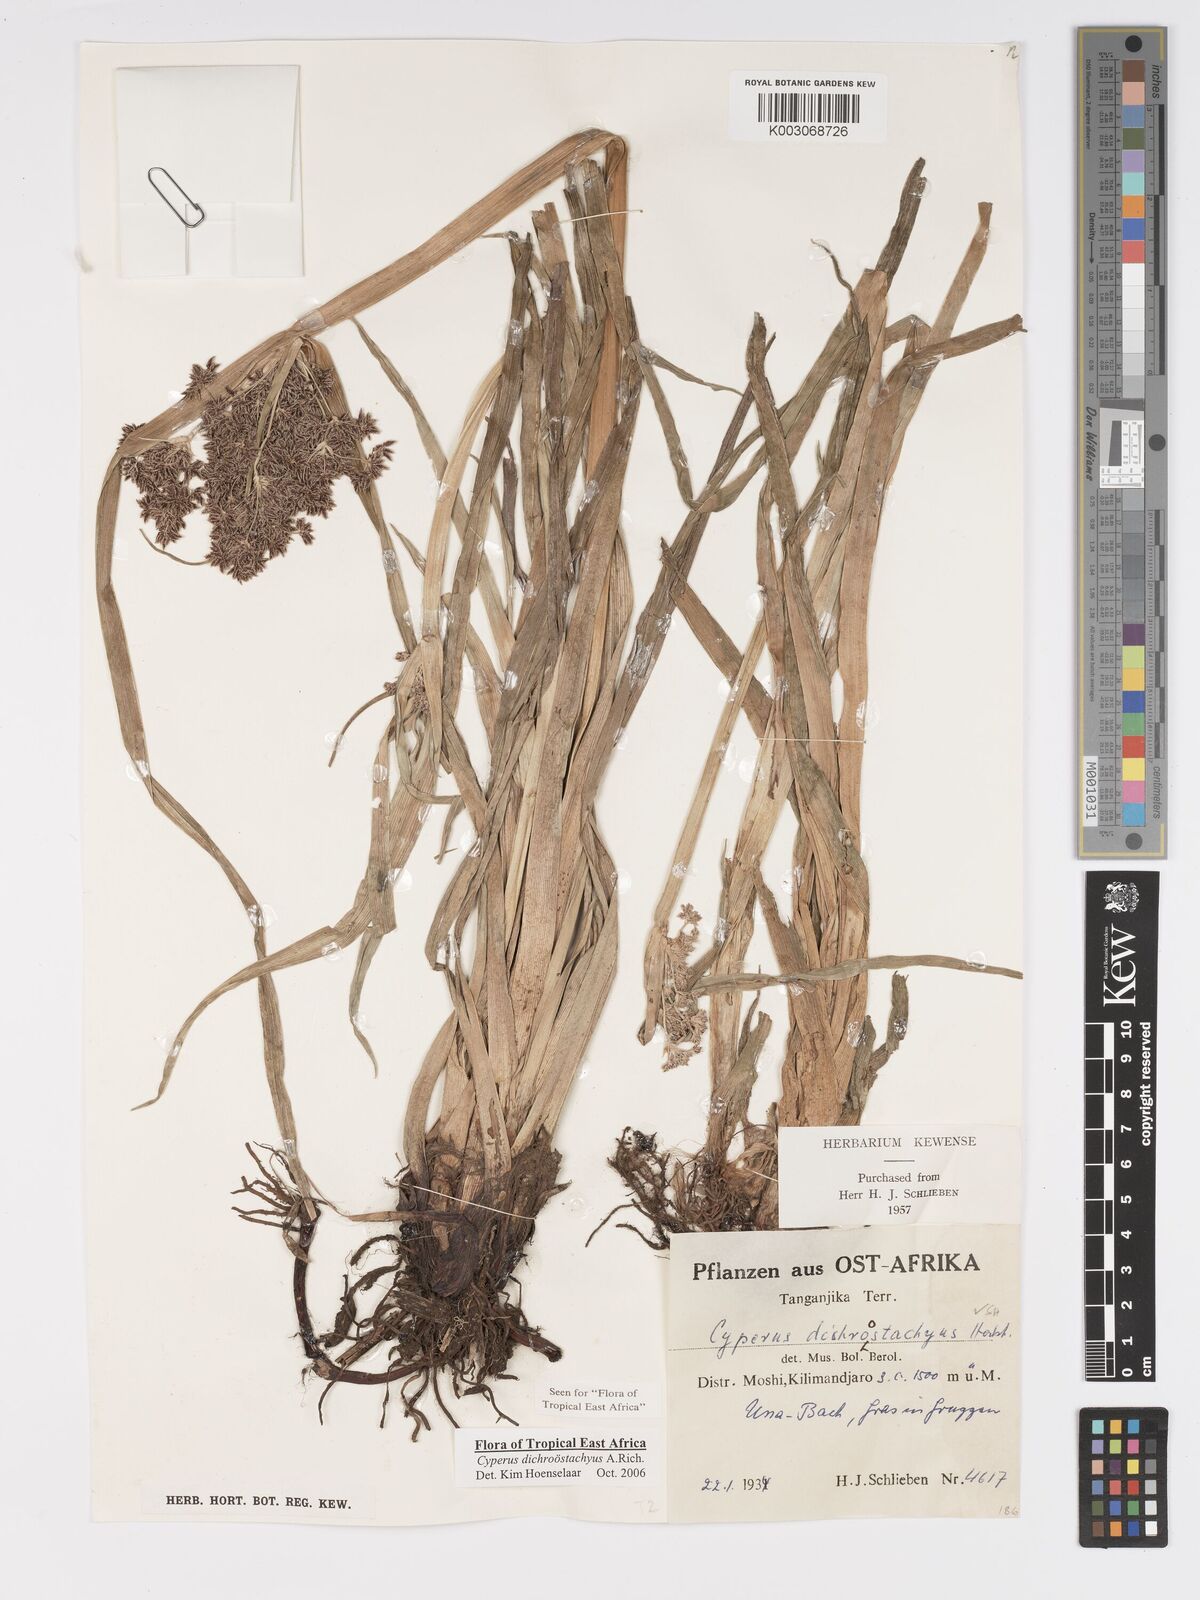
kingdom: Plantae
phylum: Tracheophyta
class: Liliopsida
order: Poales
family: Cyperaceae
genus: Cyperus
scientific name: Cyperus dichrostachyus
